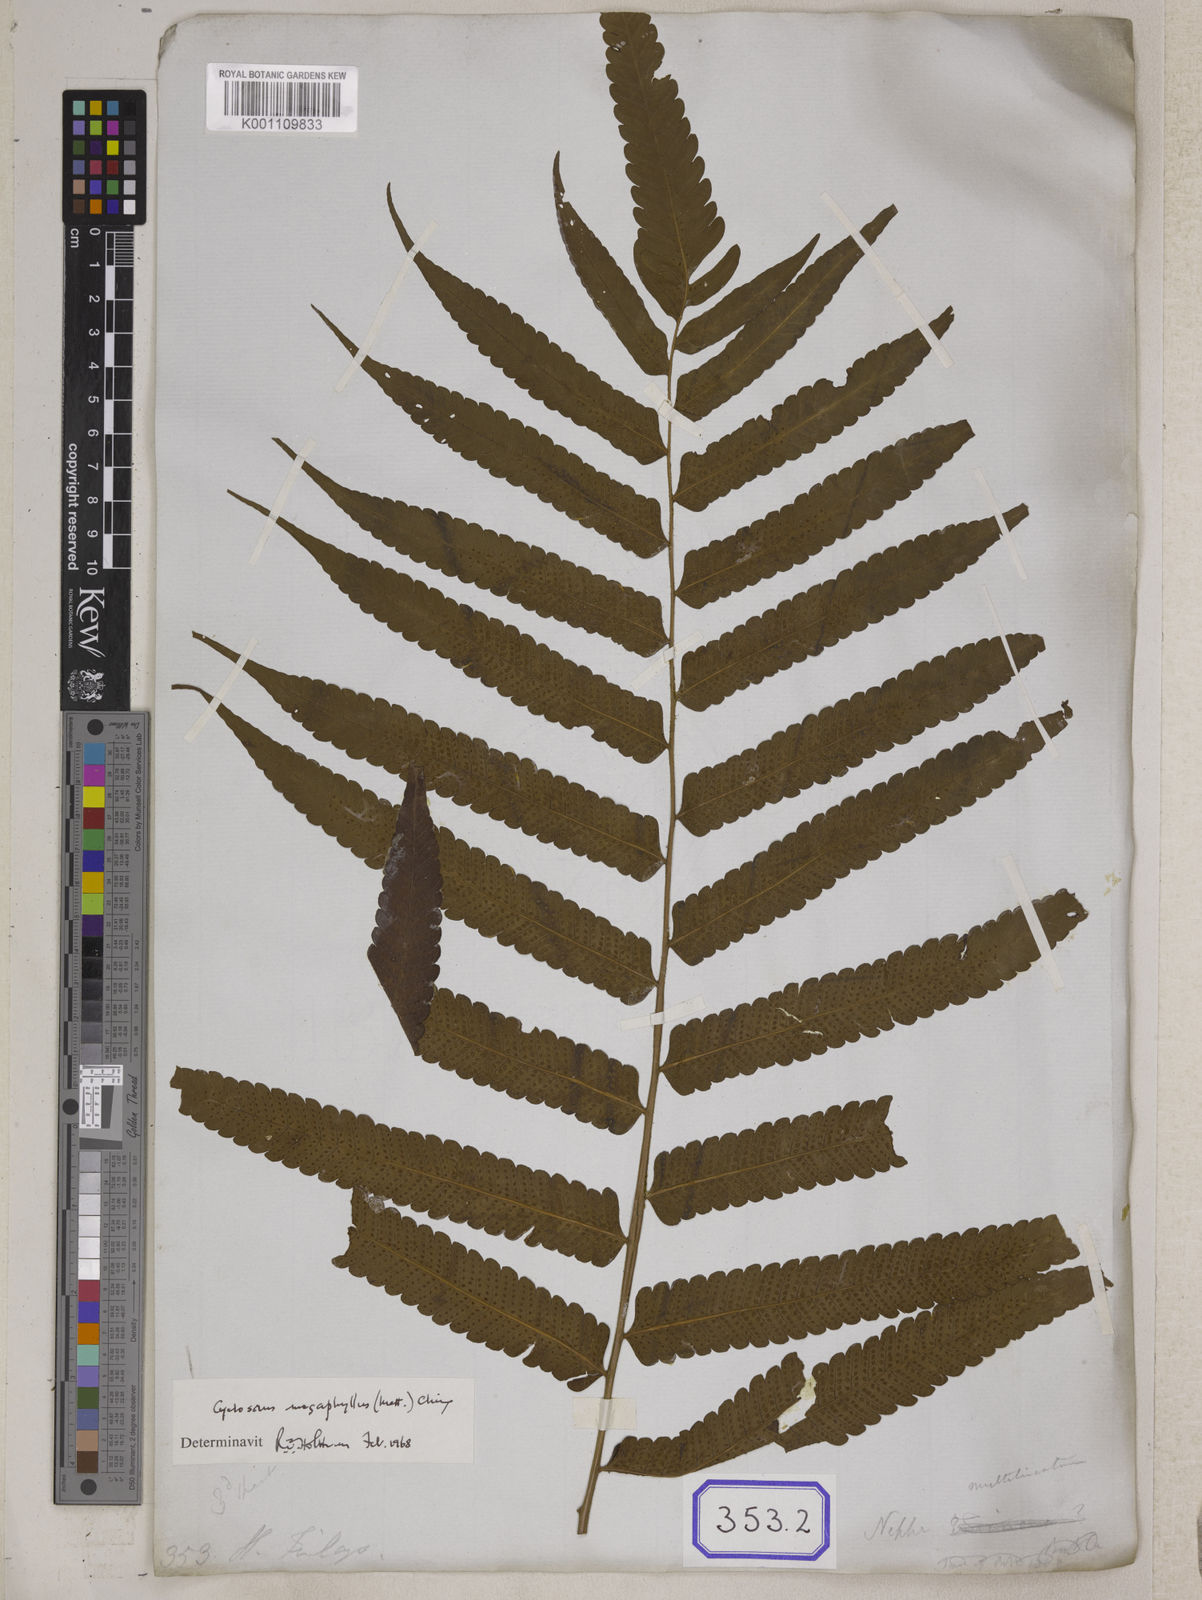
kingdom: Plantae
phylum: Tracheophyta
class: Polypodiopsida
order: Polypodiales
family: Thelypteridaceae
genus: Reholttumia
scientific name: Reholttumia truncata
